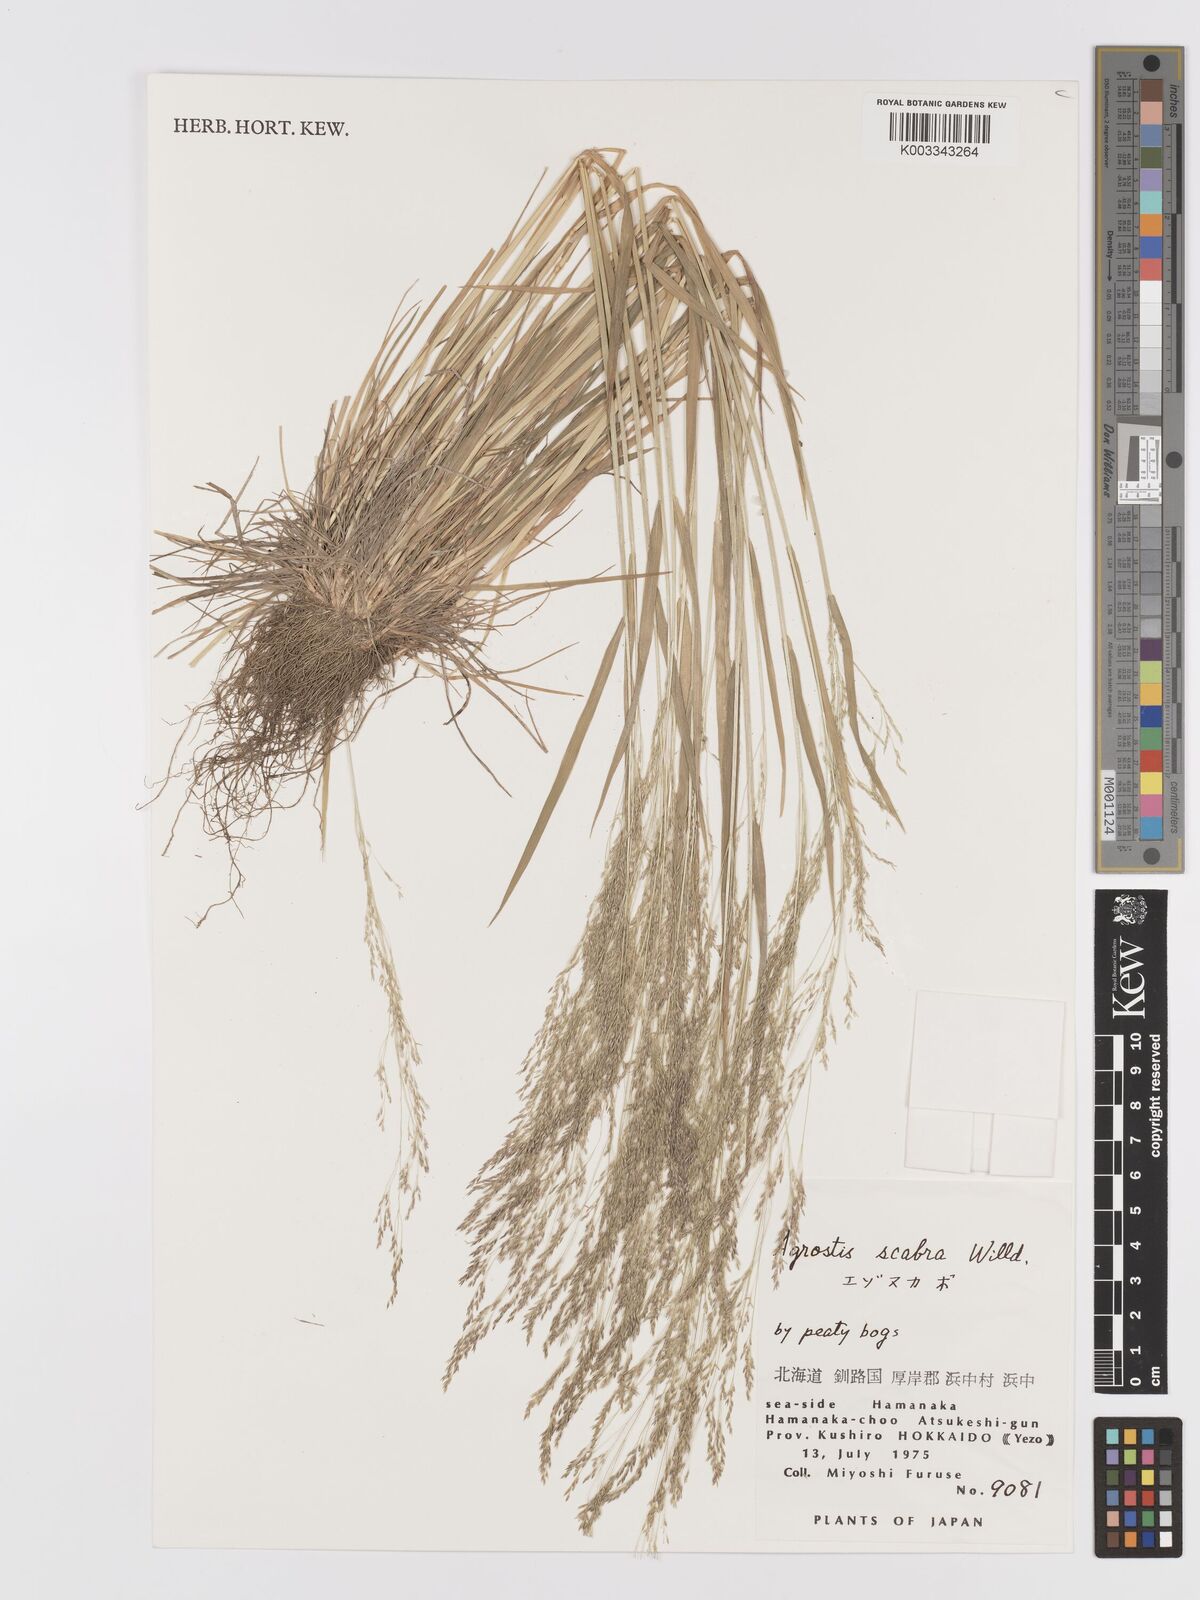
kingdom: Plantae
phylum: Tracheophyta
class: Liliopsida
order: Poales
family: Poaceae
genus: Agrostis
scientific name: Agrostis scabra
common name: Rough bent
